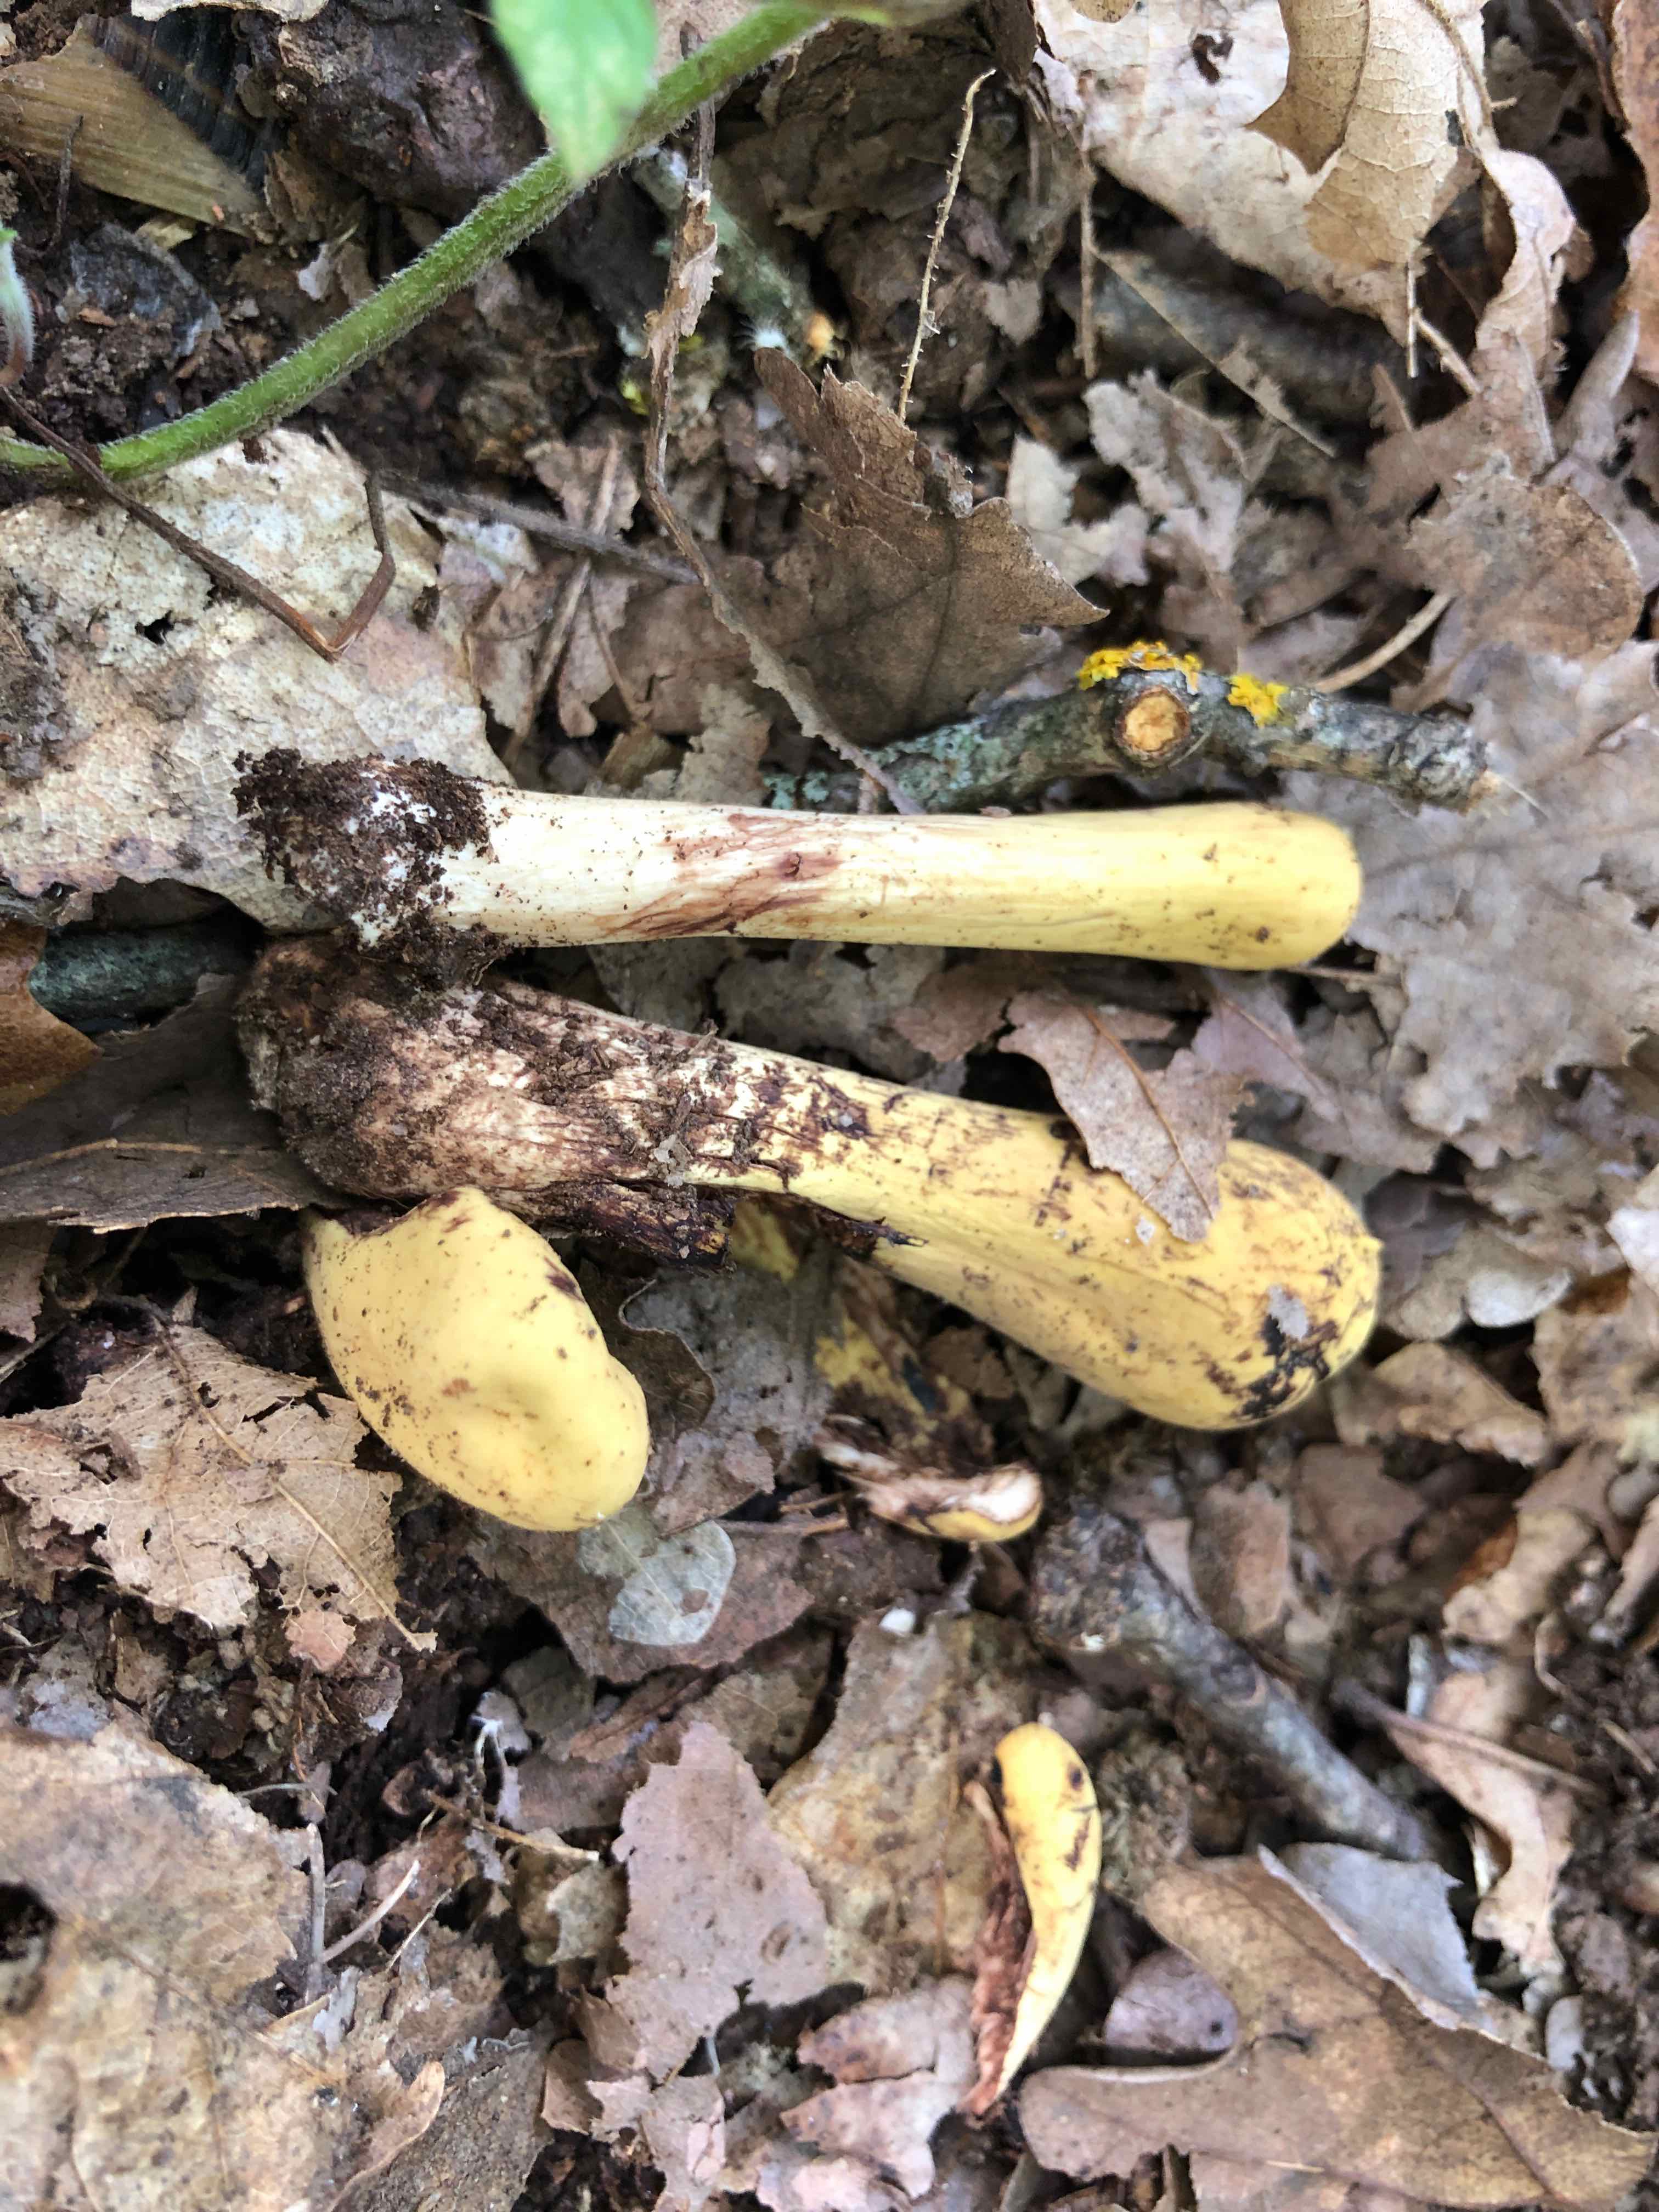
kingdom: Fungi
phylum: Basidiomycota
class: Agaricomycetes
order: Gomphales
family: Clavariadelphaceae
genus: Clavariadelphus
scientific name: Clavariadelphus pistillaris
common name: herkules-kæmpekølle
